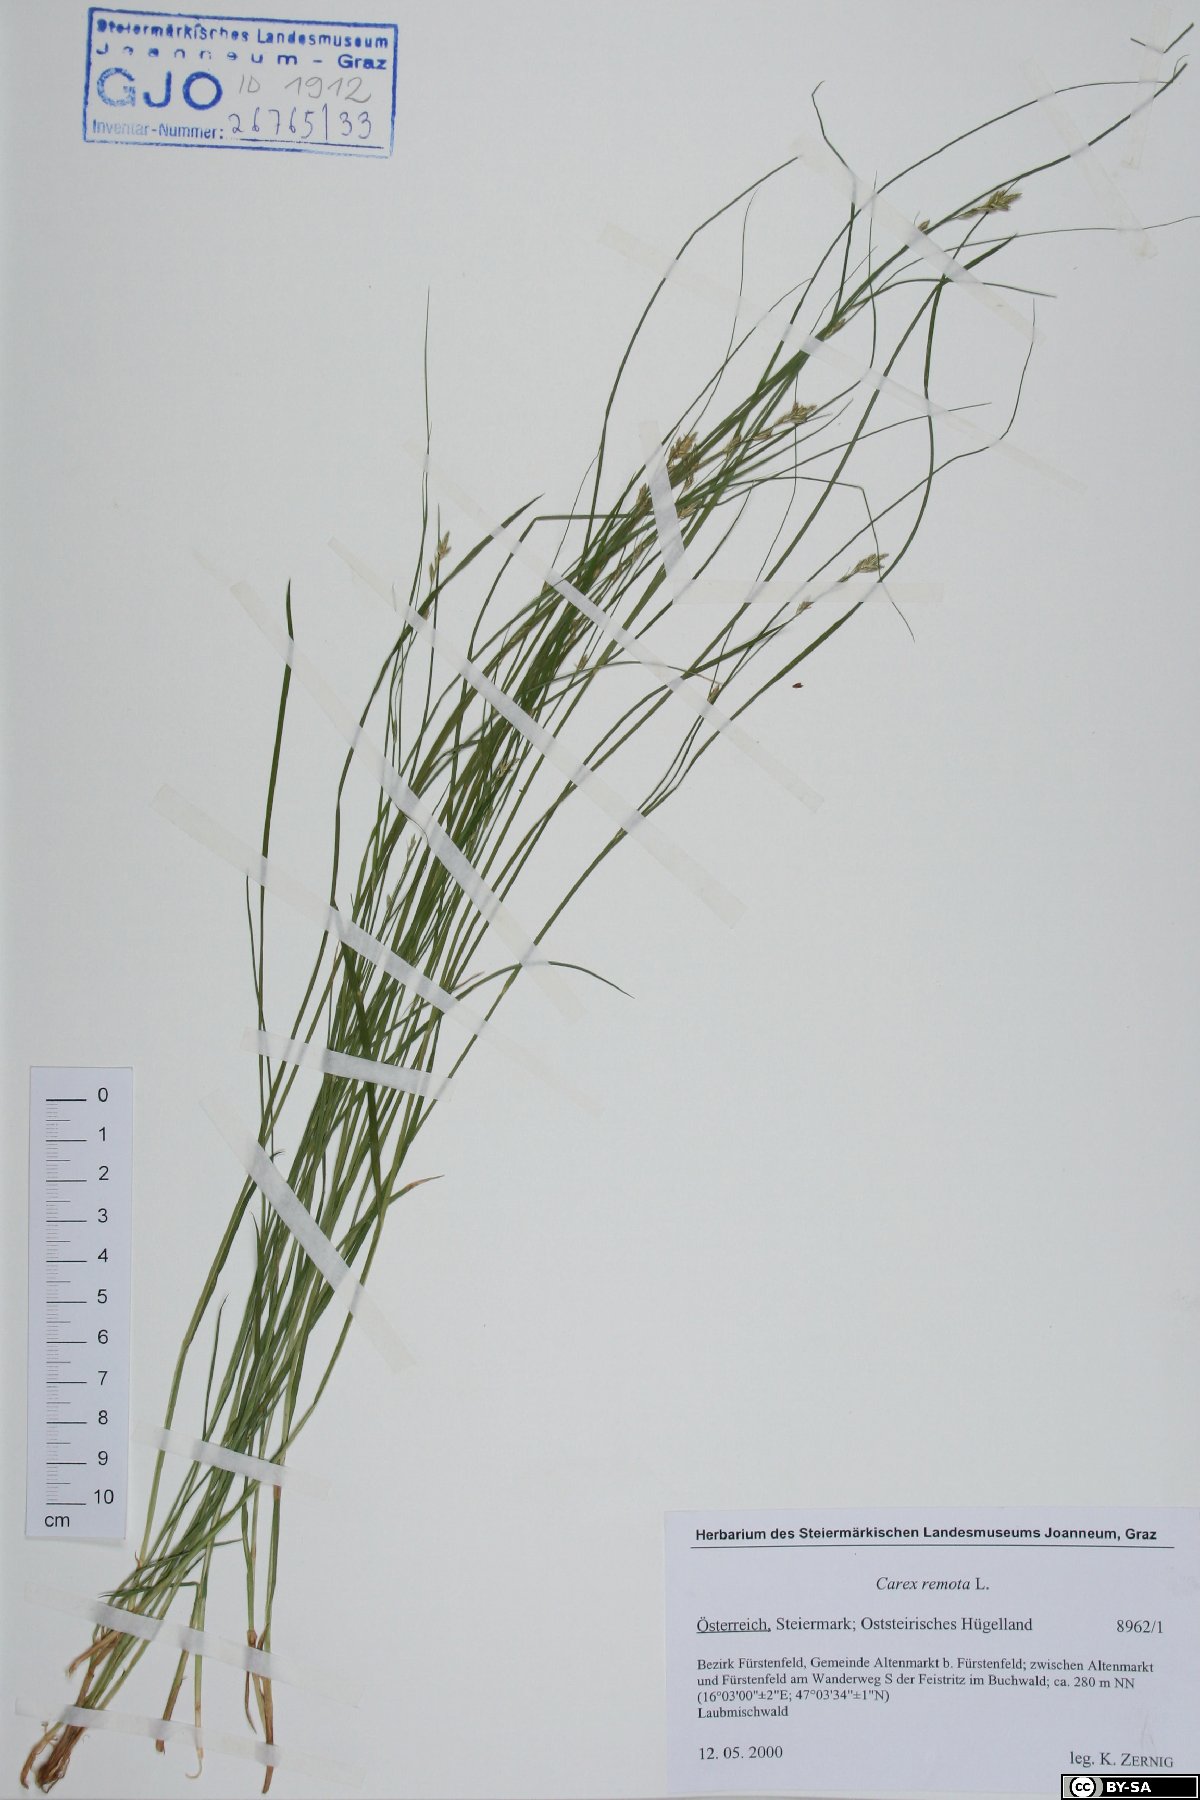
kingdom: Plantae
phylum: Tracheophyta
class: Liliopsida
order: Poales
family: Cyperaceae
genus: Carex
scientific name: Carex remota
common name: Remote sedge
